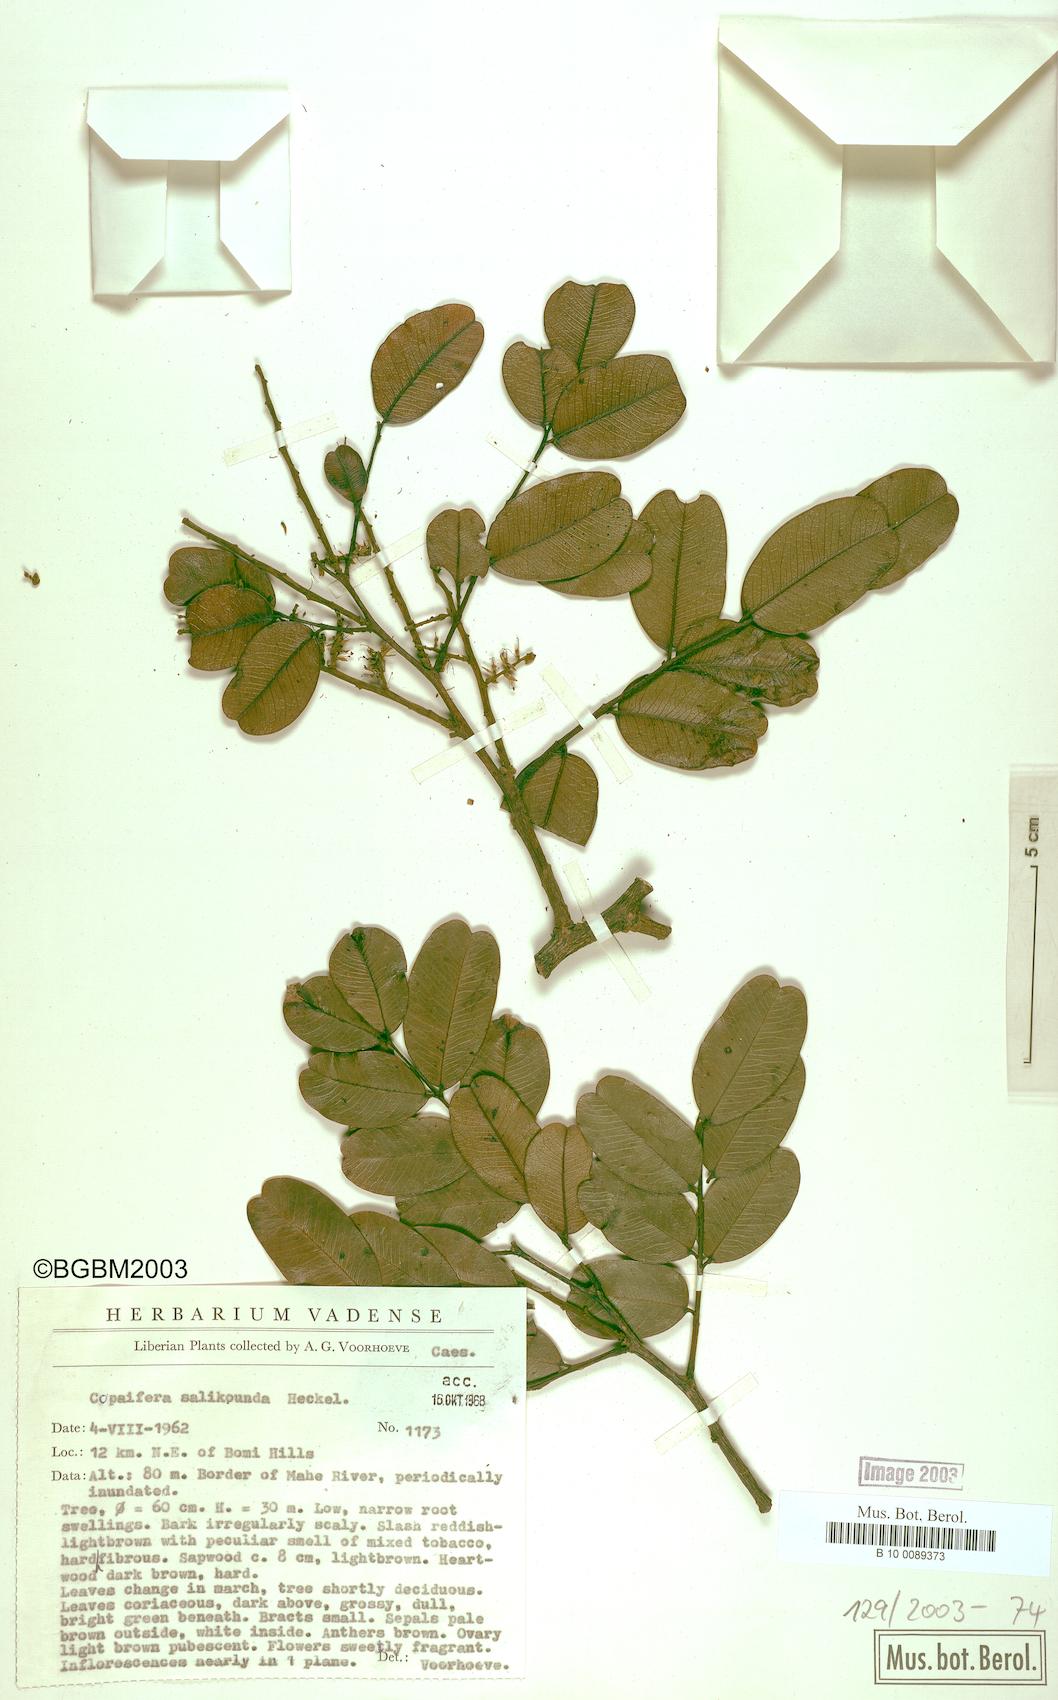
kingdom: Plantae
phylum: Tracheophyta
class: Magnoliopsida
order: Fabales
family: Fabaceae
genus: Copaifera
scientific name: Copaifera salikounda
